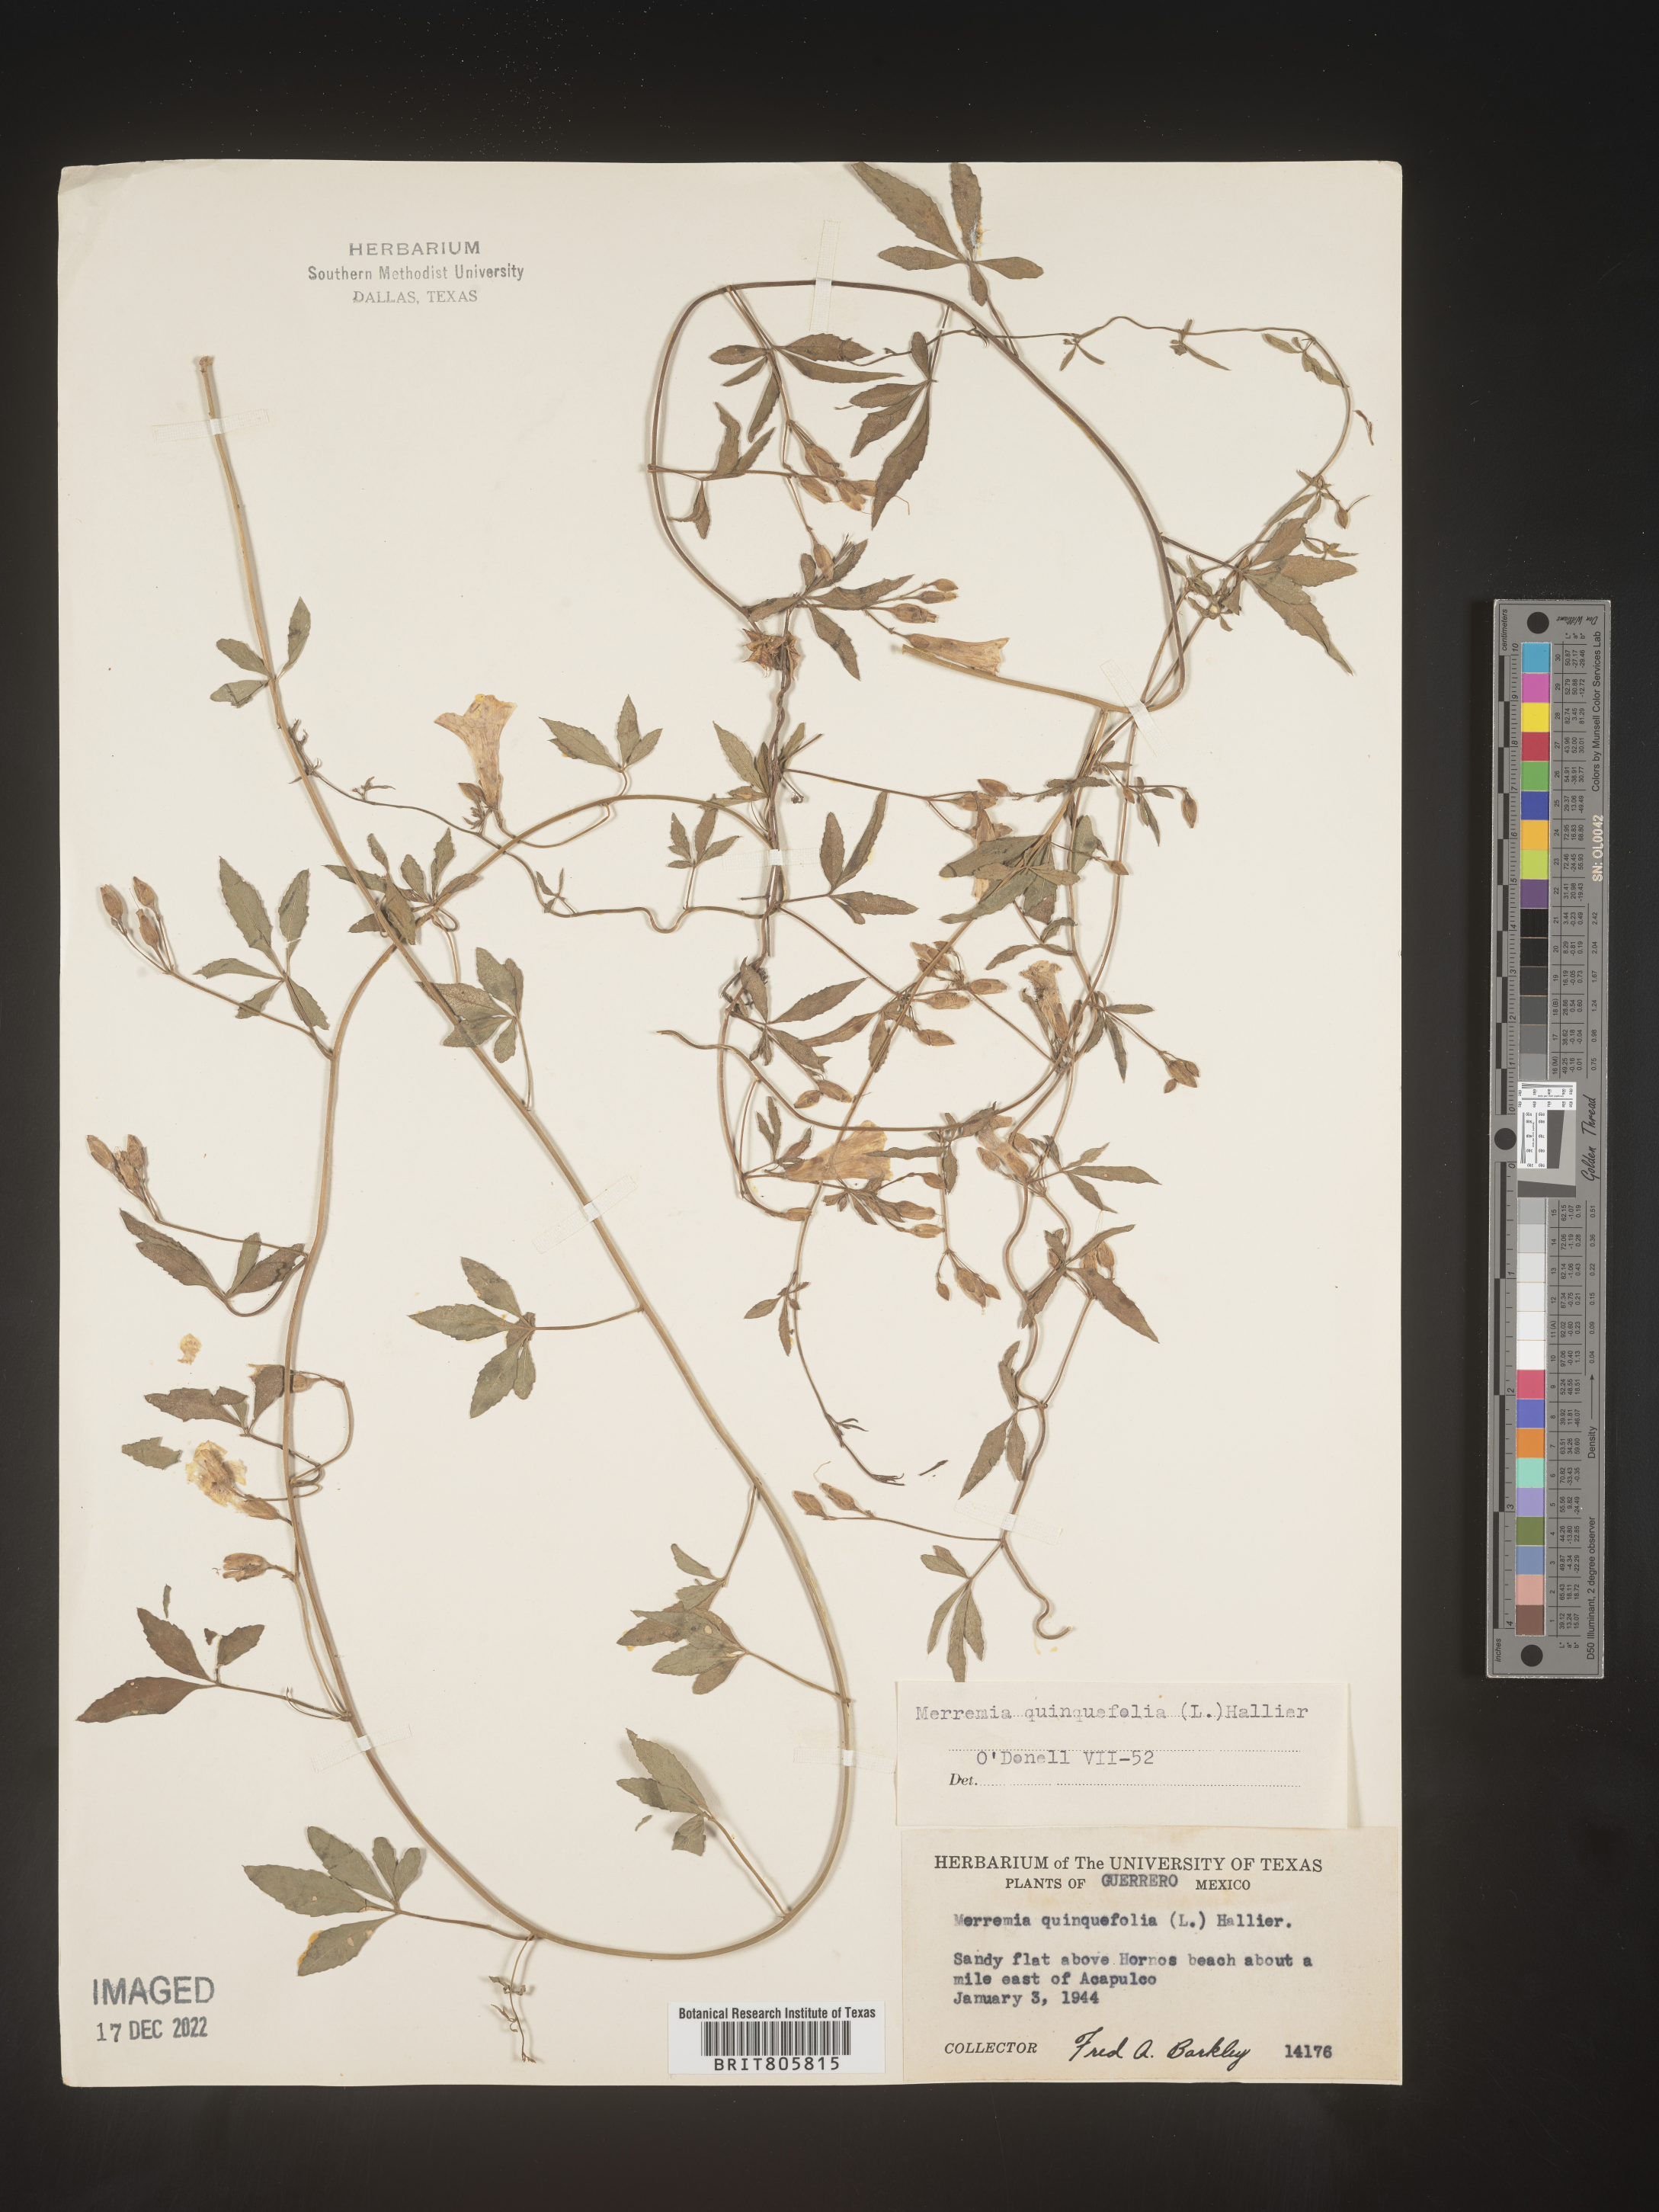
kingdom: Plantae
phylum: Tracheophyta
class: Magnoliopsida
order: Solanales
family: Convolvulaceae
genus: Merremia
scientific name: Merremia
